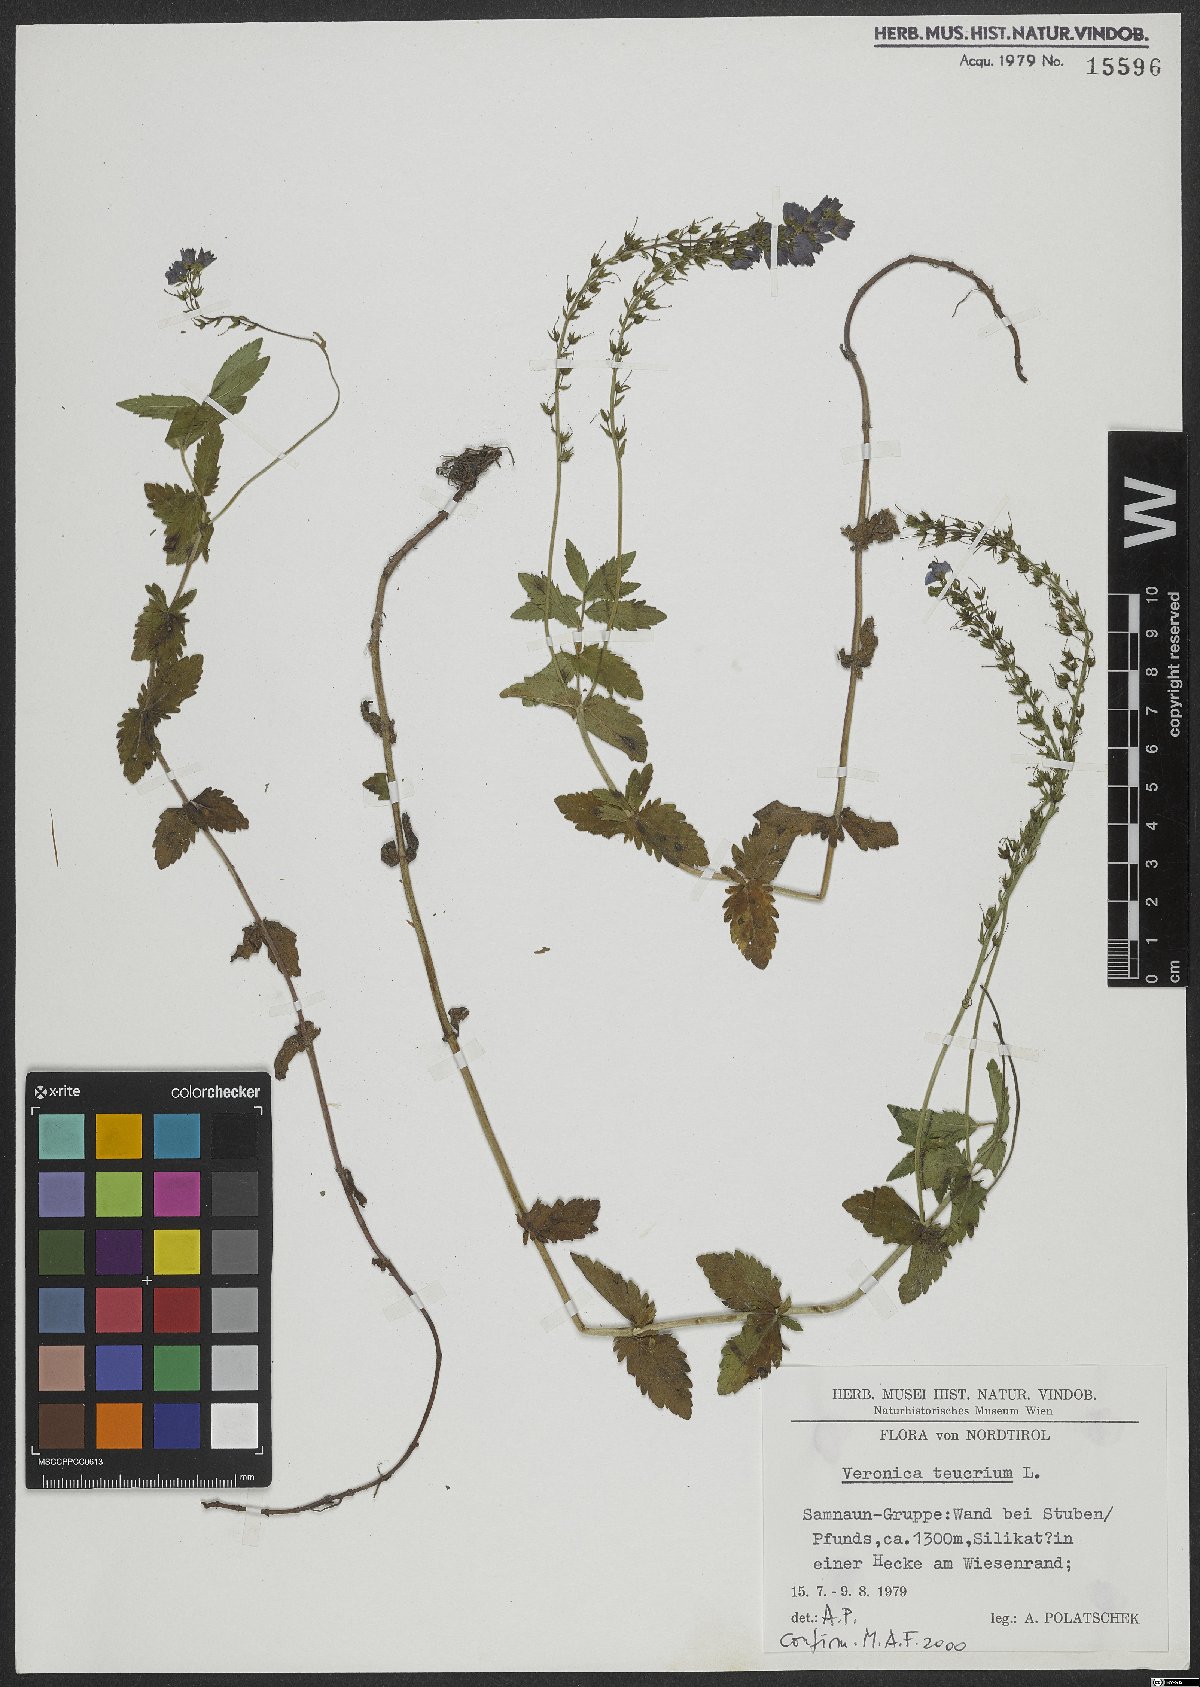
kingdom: Plantae
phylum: Tracheophyta
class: Magnoliopsida
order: Lamiales
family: Plantaginaceae
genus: Veronica
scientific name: Veronica teucrium
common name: Large speedwell
